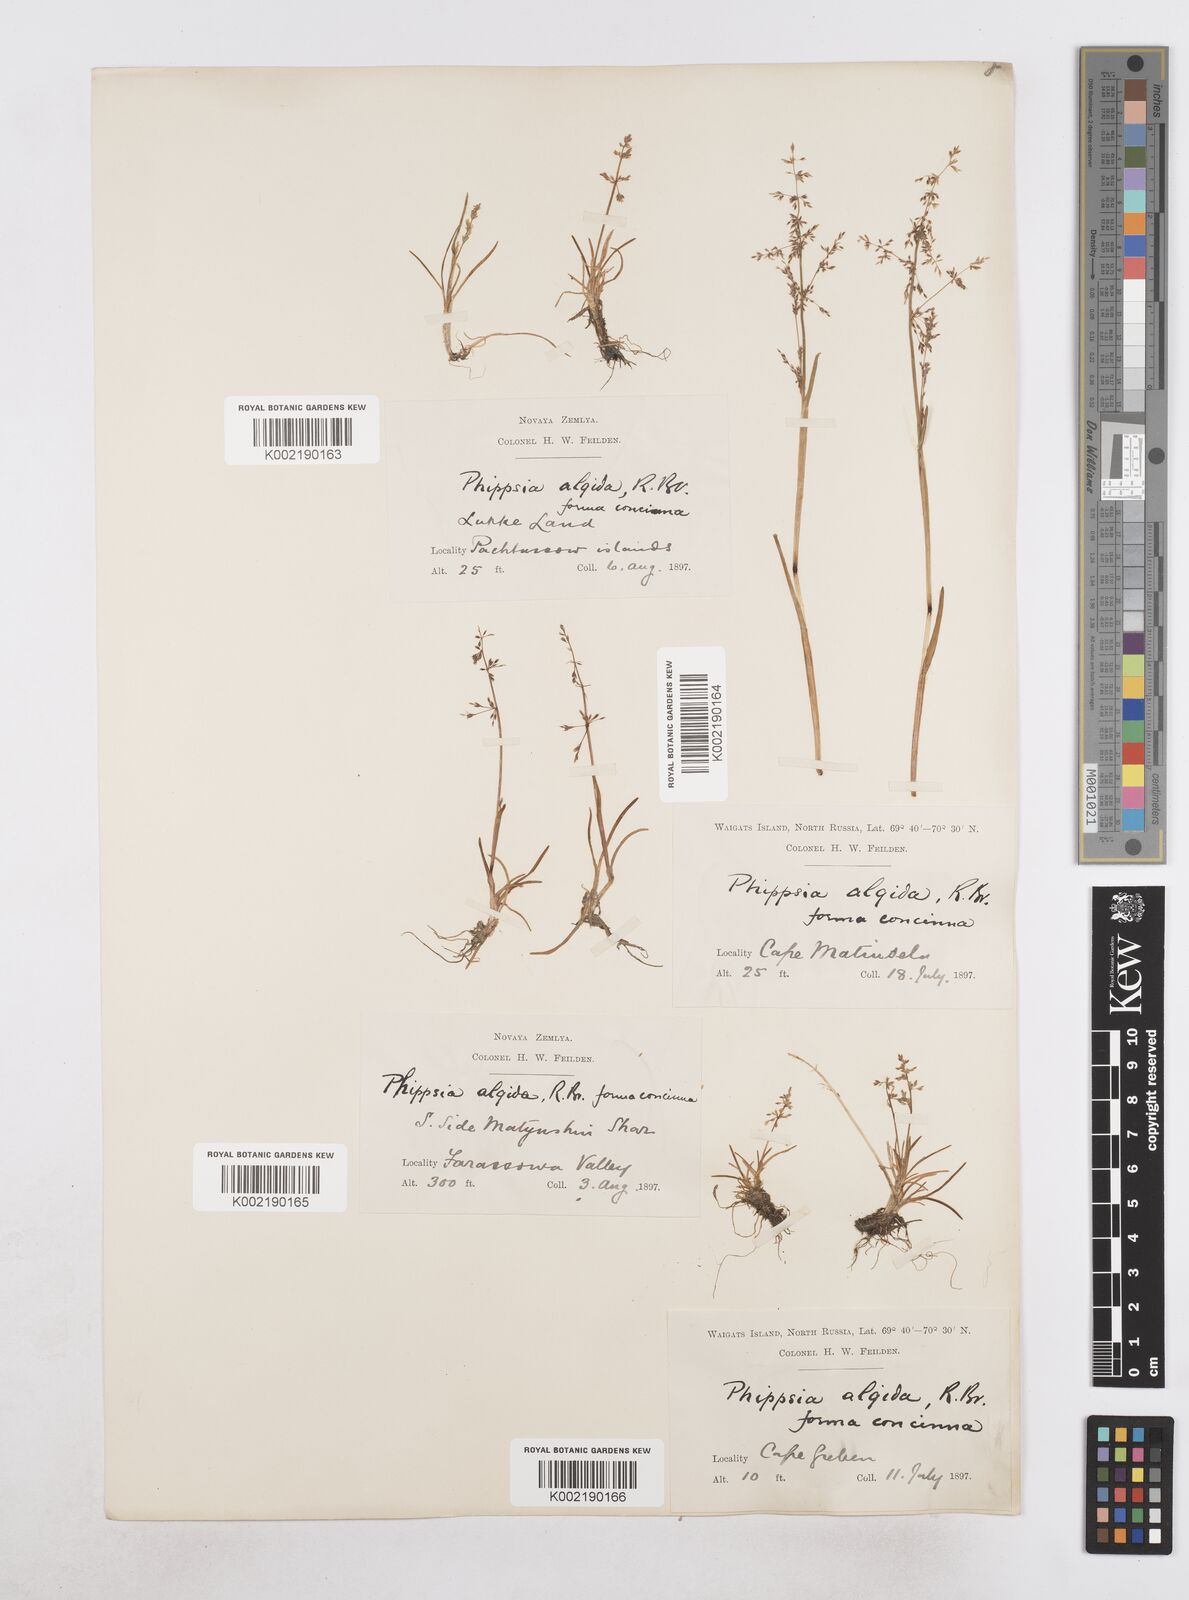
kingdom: Plantae
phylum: Tracheophyta
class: Liliopsida
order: Poales
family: Poaceae
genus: Phippsia
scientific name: Phippsia concinna
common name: Snowgrass
